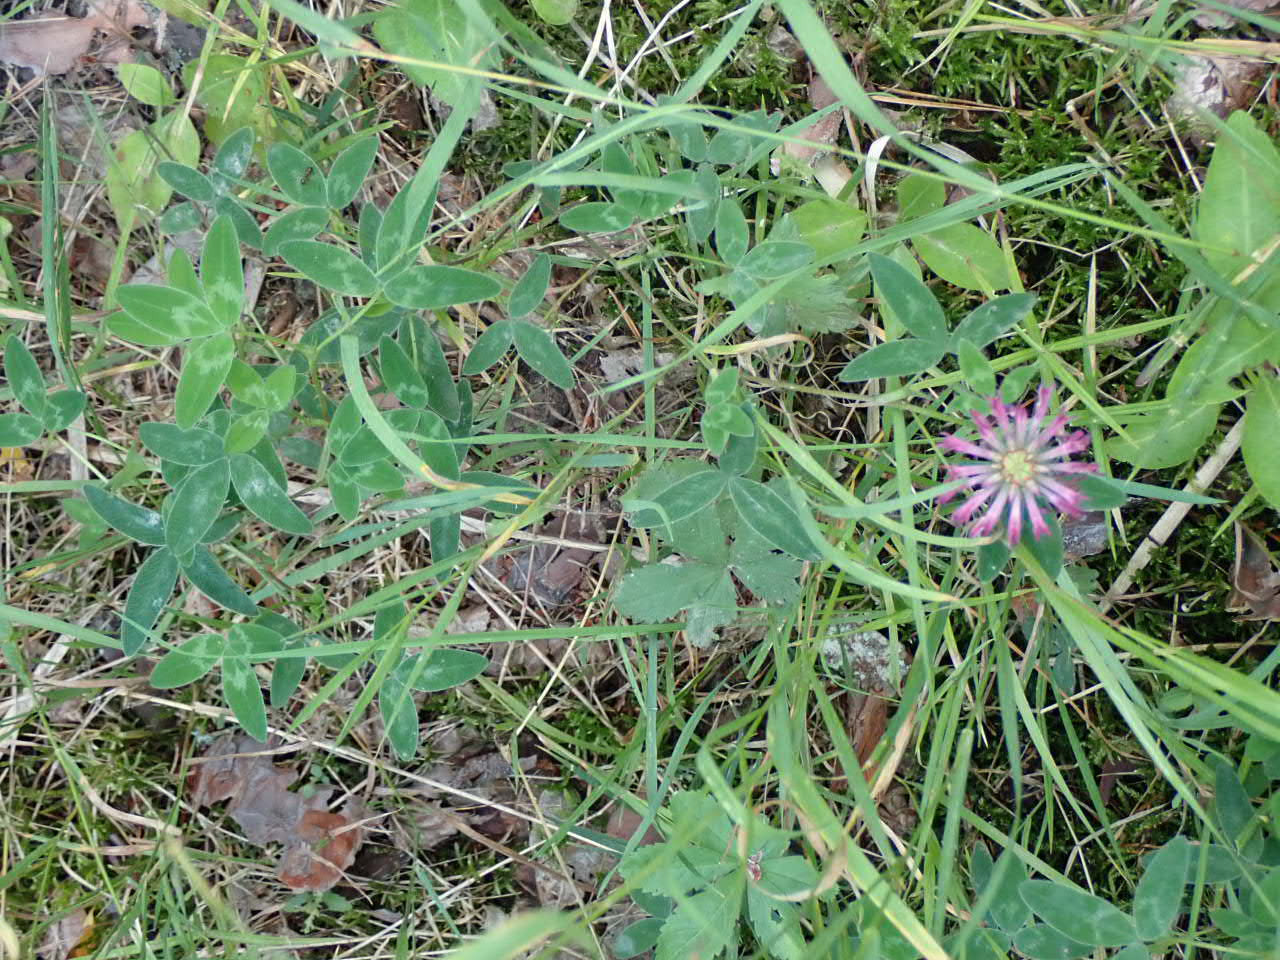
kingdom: Plantae
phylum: Tracheophyta
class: Magnoliopsida
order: Fabales
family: Fabaceae
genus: Trifolium
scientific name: Trifolium medium
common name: Bugtet kløver
